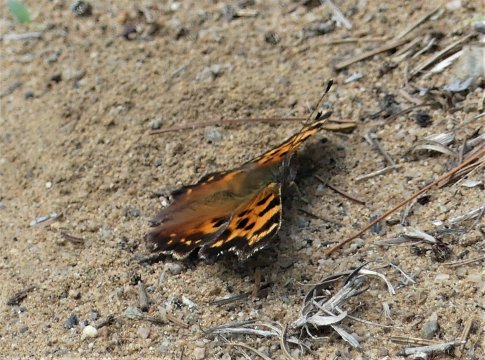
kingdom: Animalia
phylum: Arthropoda
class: Insecta
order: Lepidoptera
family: Nymphalidae
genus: Polygonia
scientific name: Polygonia faunus
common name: Green Comma
